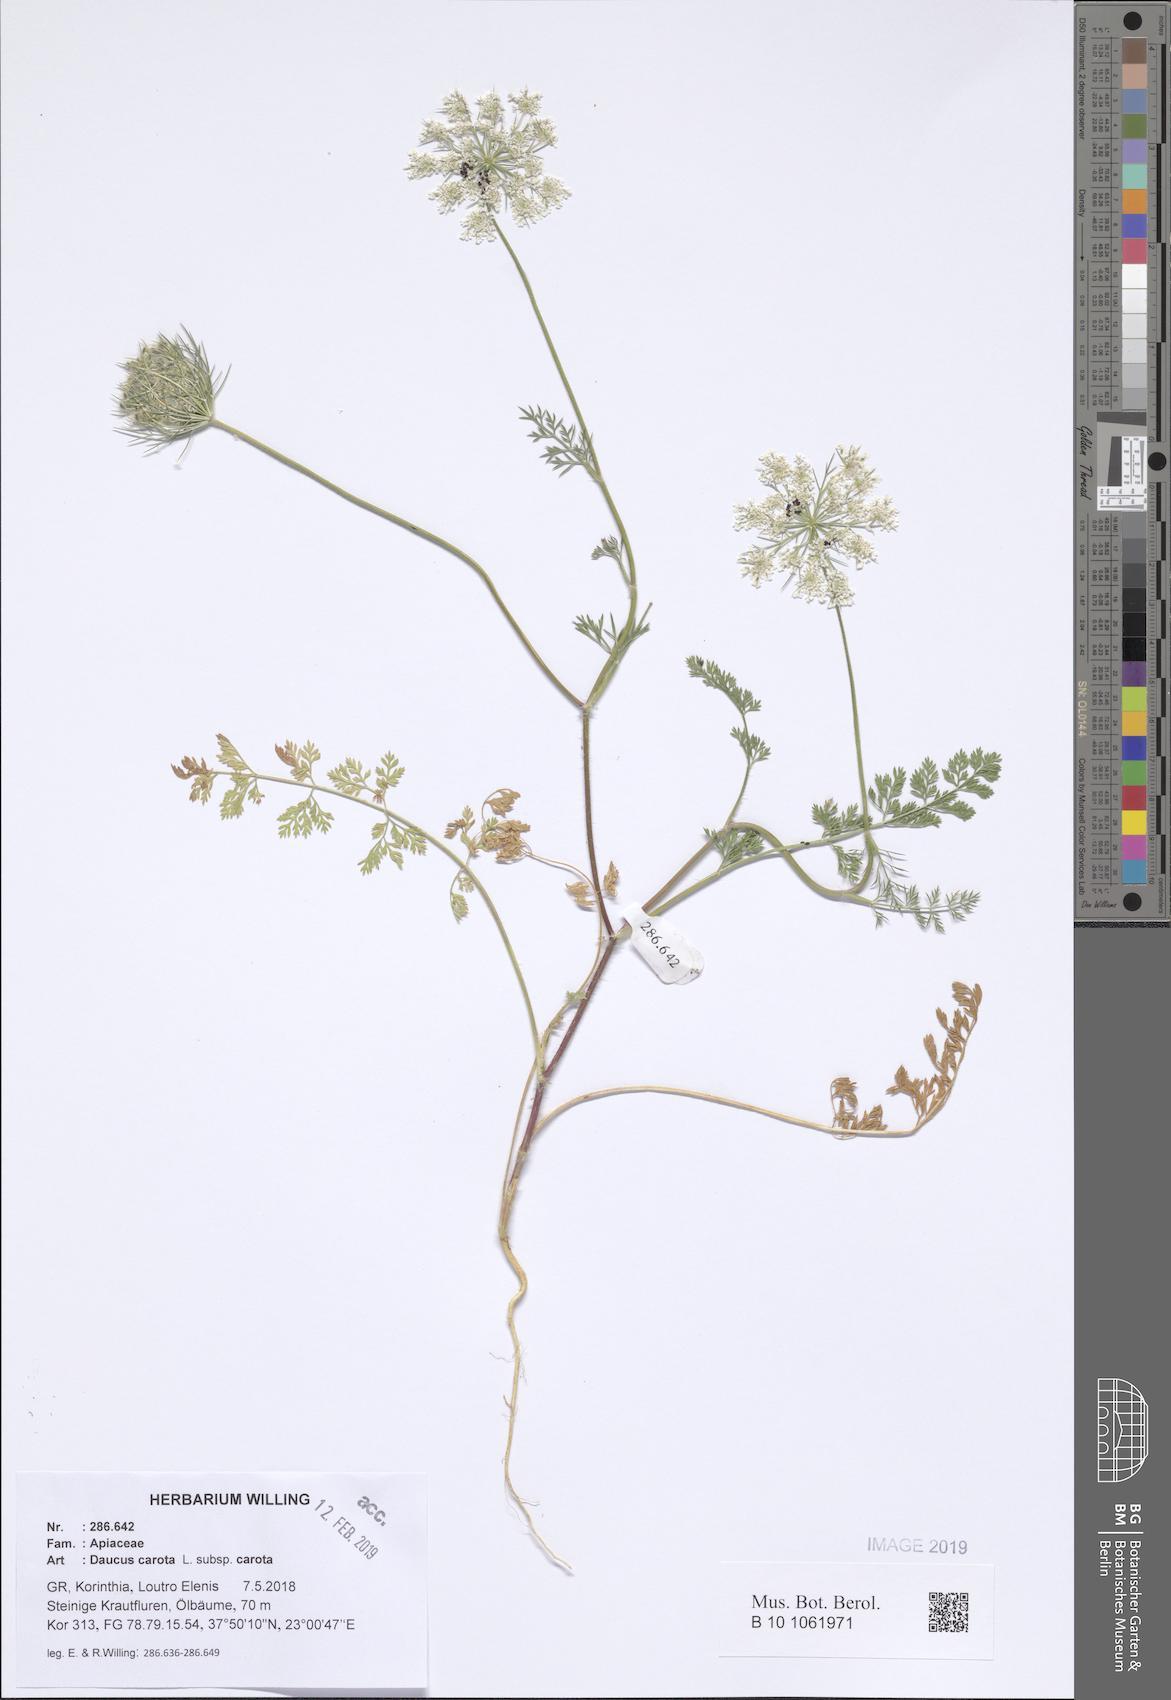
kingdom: Plantae
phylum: Tracheophyta
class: Magnoliopsida
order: Apiales
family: Apiaceae
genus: Daucus
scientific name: Daucus carota
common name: Wild carrot
